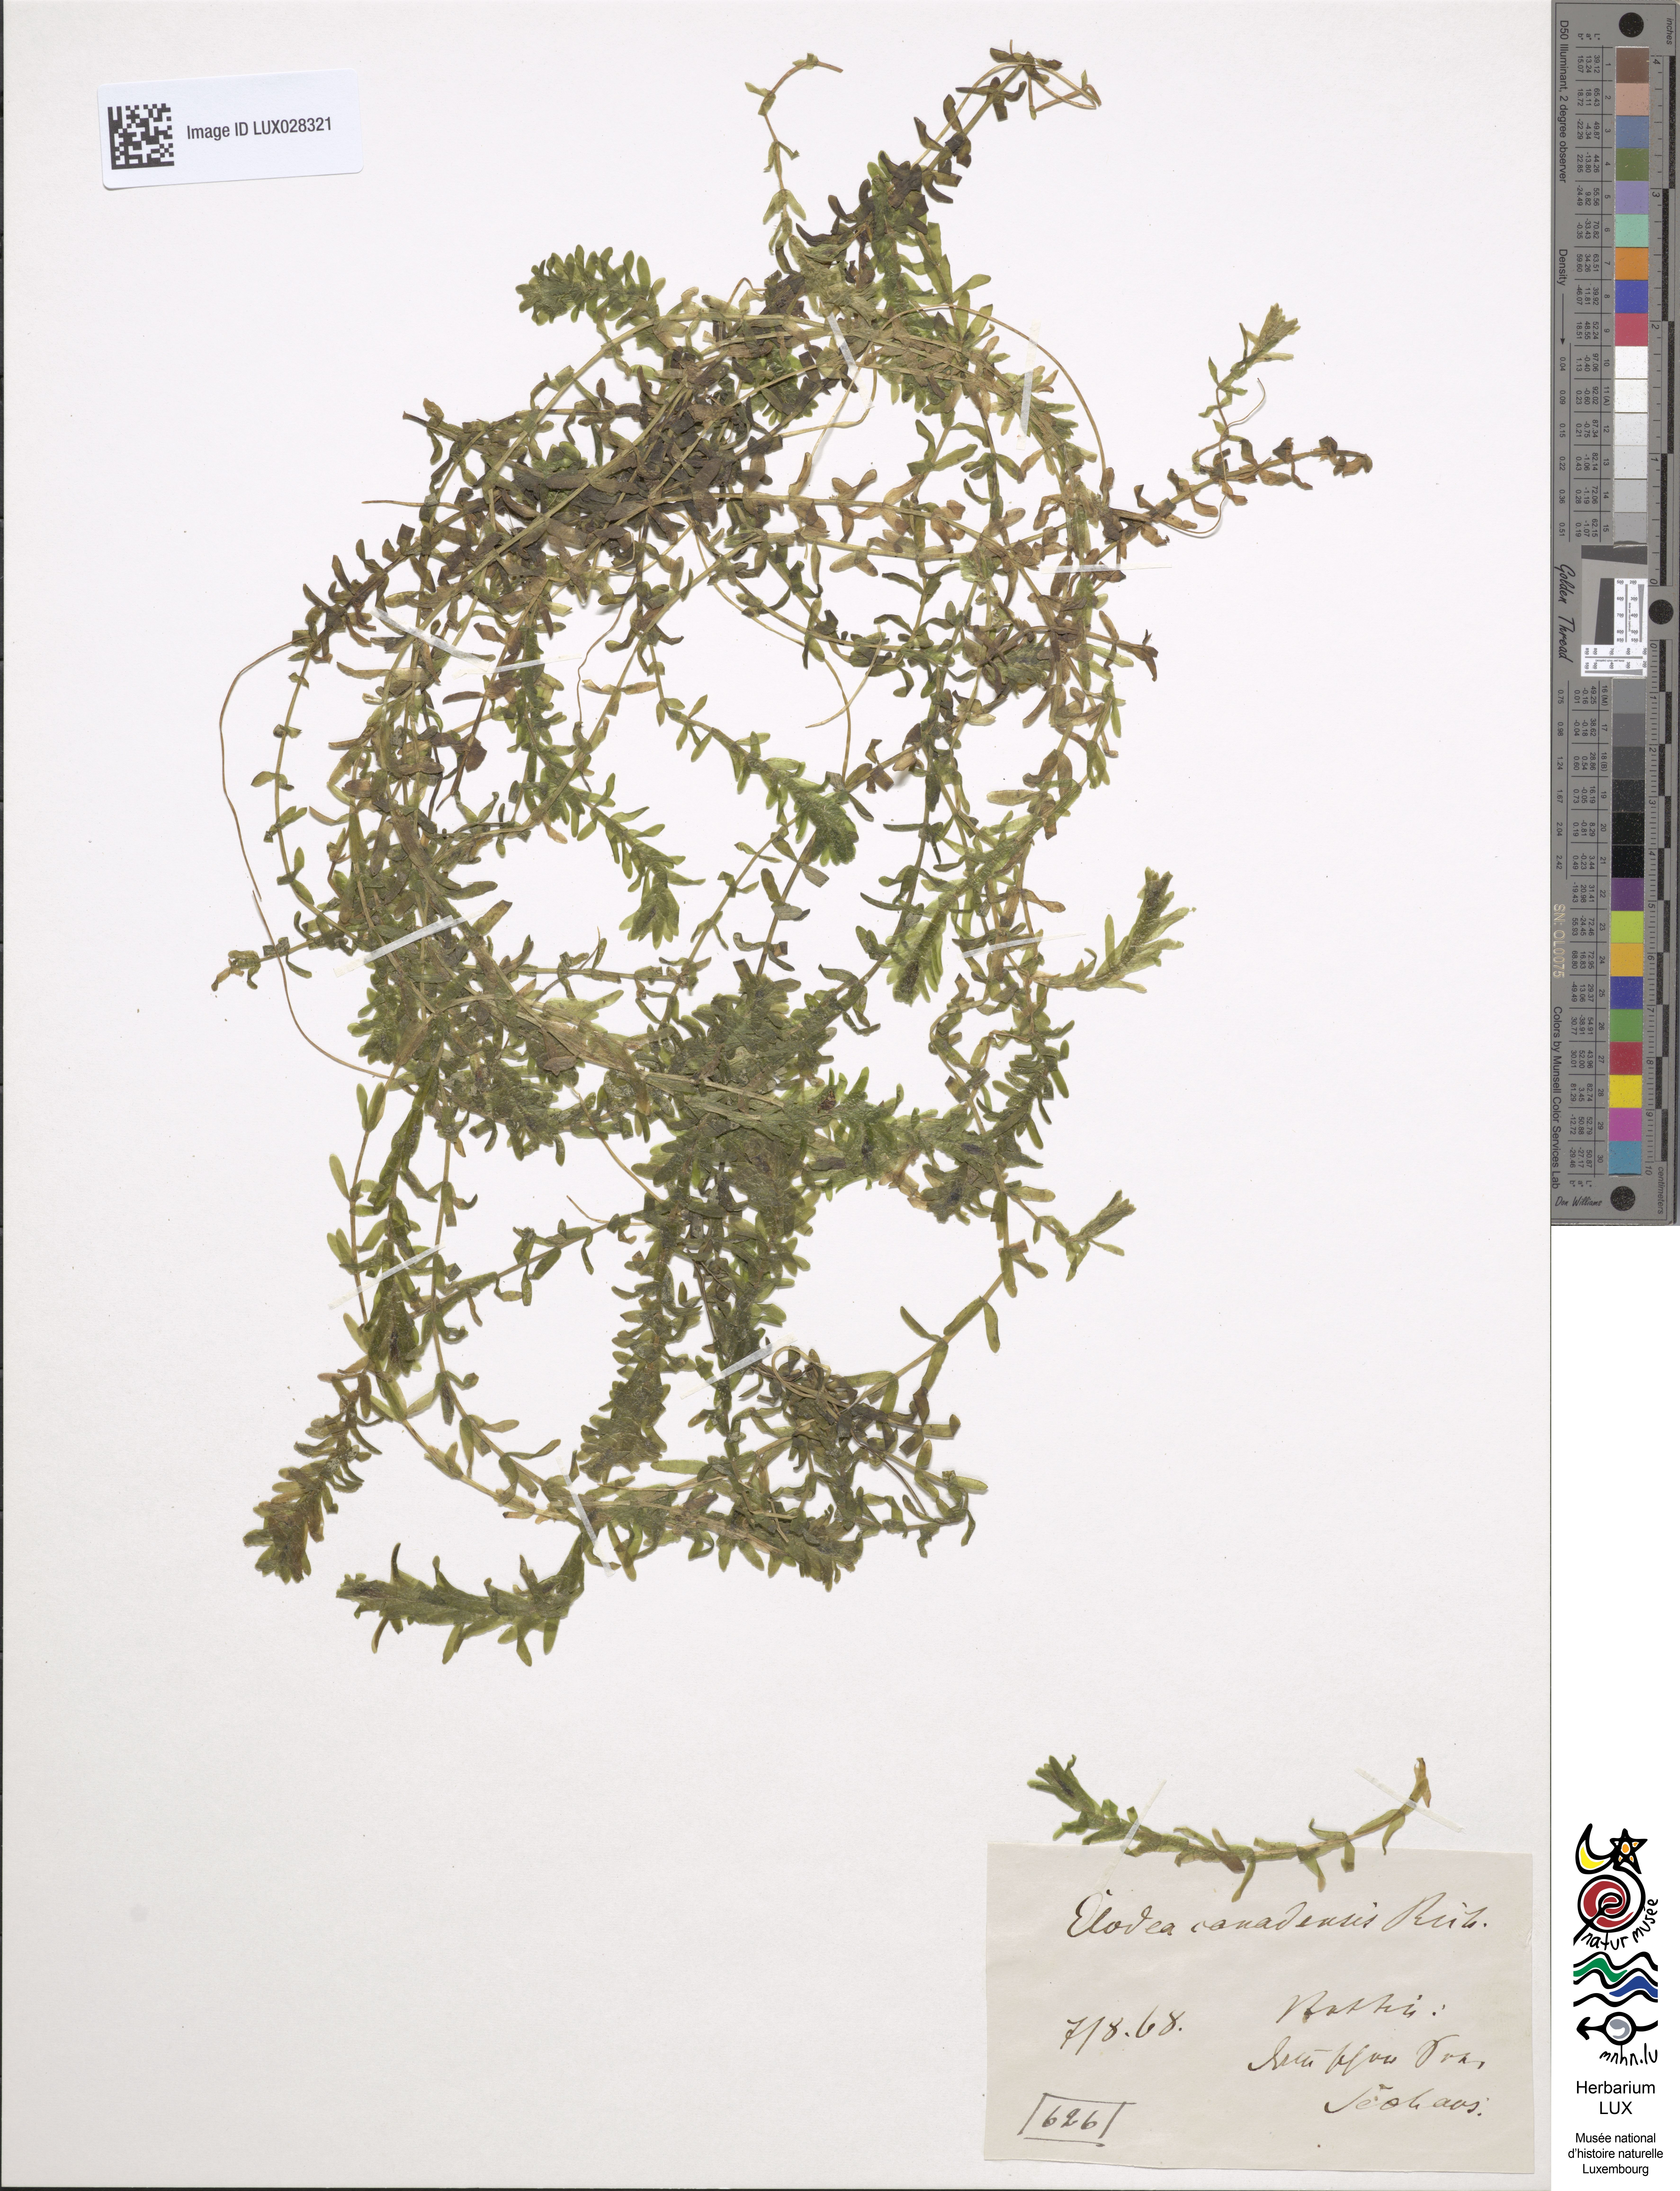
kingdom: Plantae
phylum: Tracheophyta
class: Liliopsida
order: Alismatales
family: Hydrocharitaceae
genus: Elodea
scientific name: Elodea canadensis
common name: Canadian waterweed
